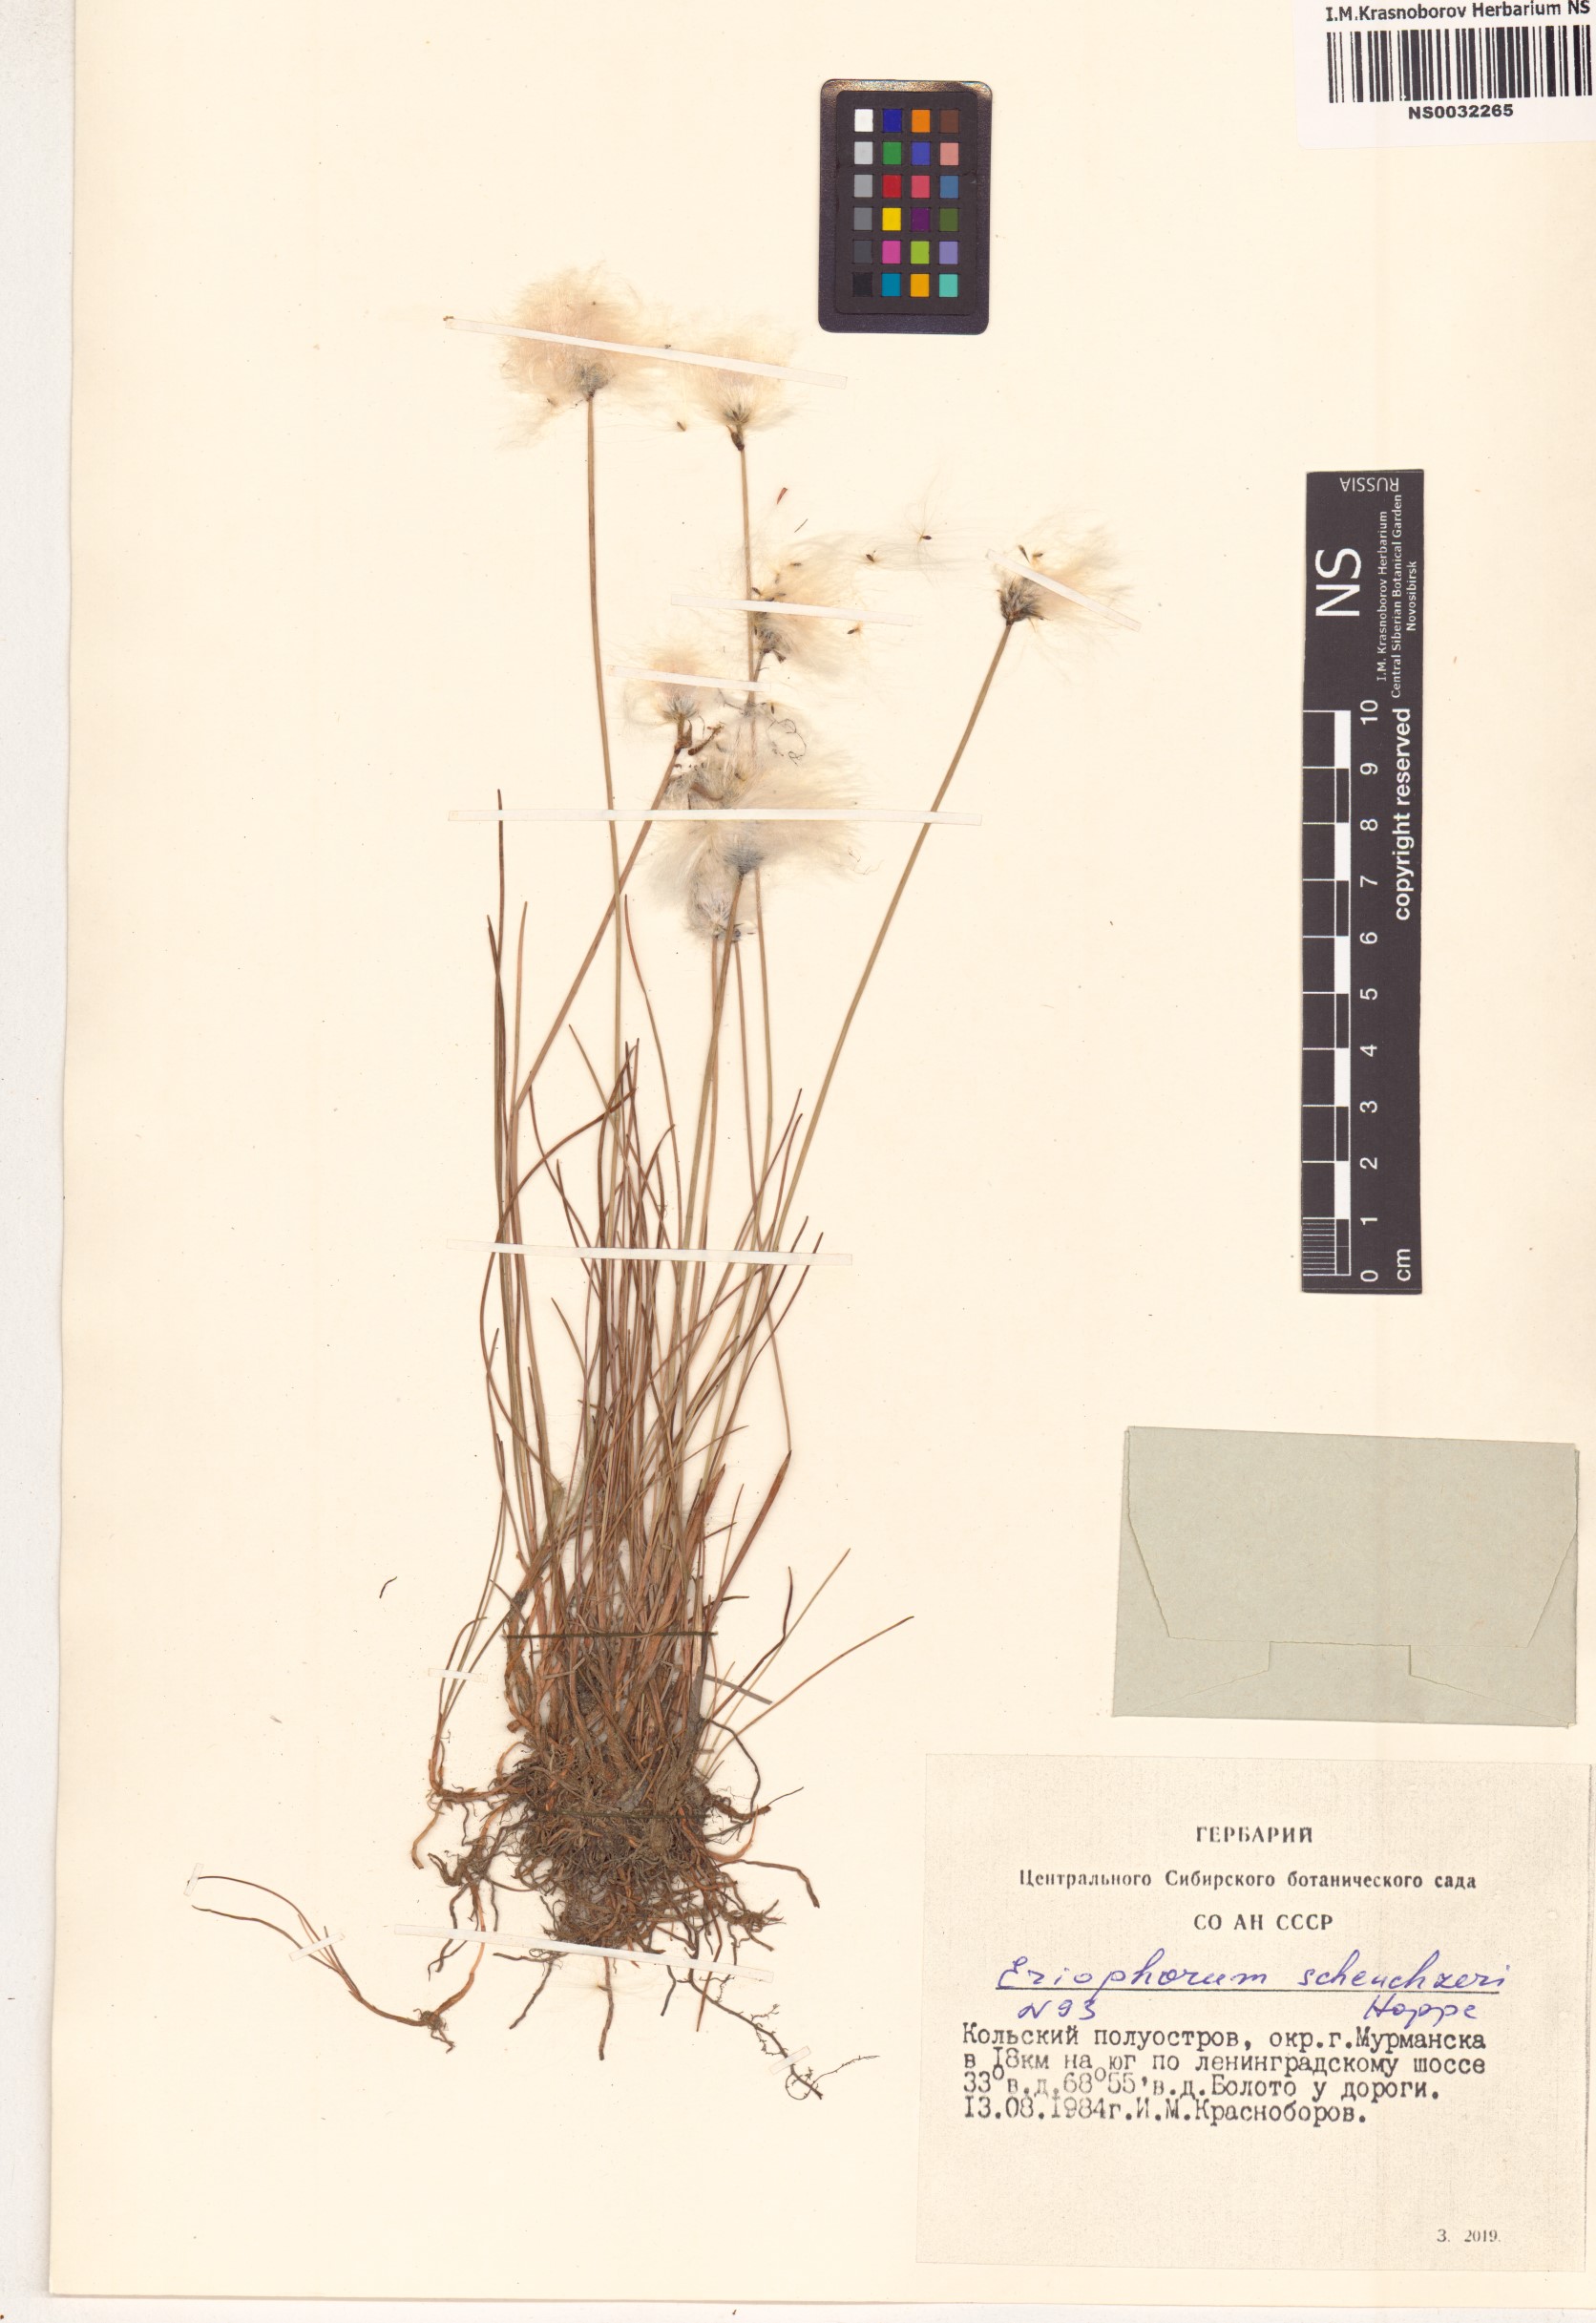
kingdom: Plantae
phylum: Tracheophyta
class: Liliopsida
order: Poales
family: Cyperaceae
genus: Eriophorum
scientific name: Eriophorum scheuchzeri
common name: Scheuchzer's cottongrass
